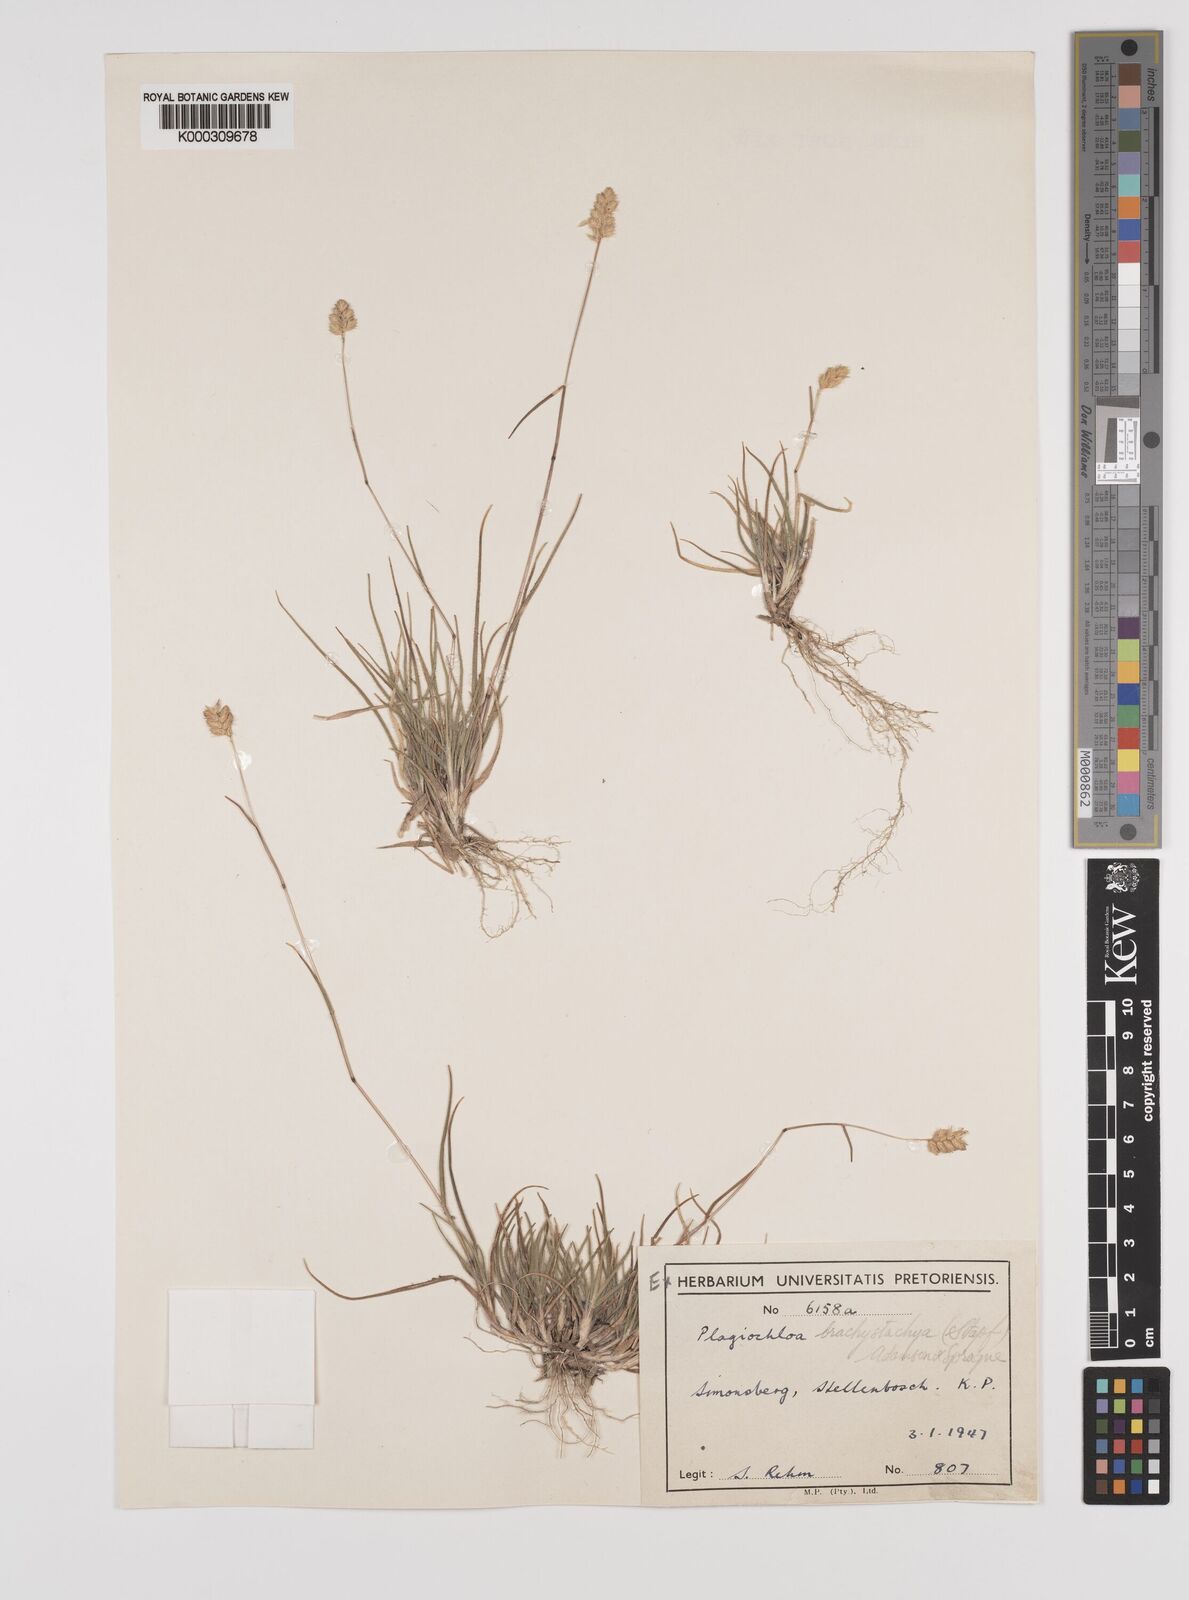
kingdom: Plantae
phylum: Tracheophyta
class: Liliopsida
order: Poales
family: Poaceae
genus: Tribolium
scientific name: Tribolium brachystachyum
